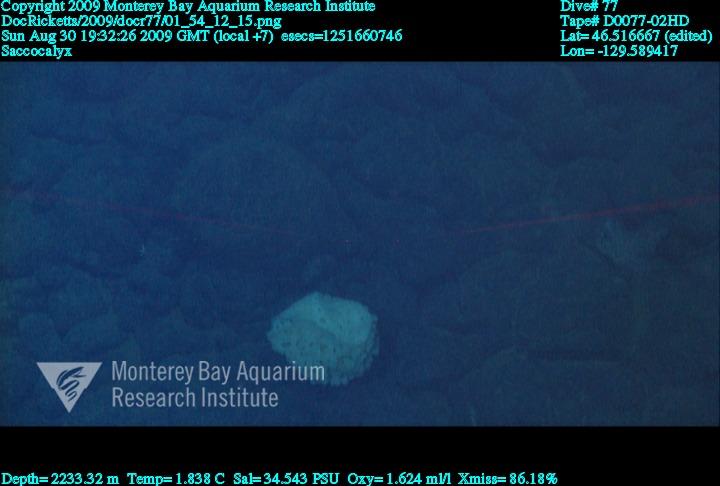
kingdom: Animalia
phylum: Porifera
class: Hexactinellida
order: Lyssacinosida
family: Euplectellidae
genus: Saccocalyx
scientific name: Saccocalyx
